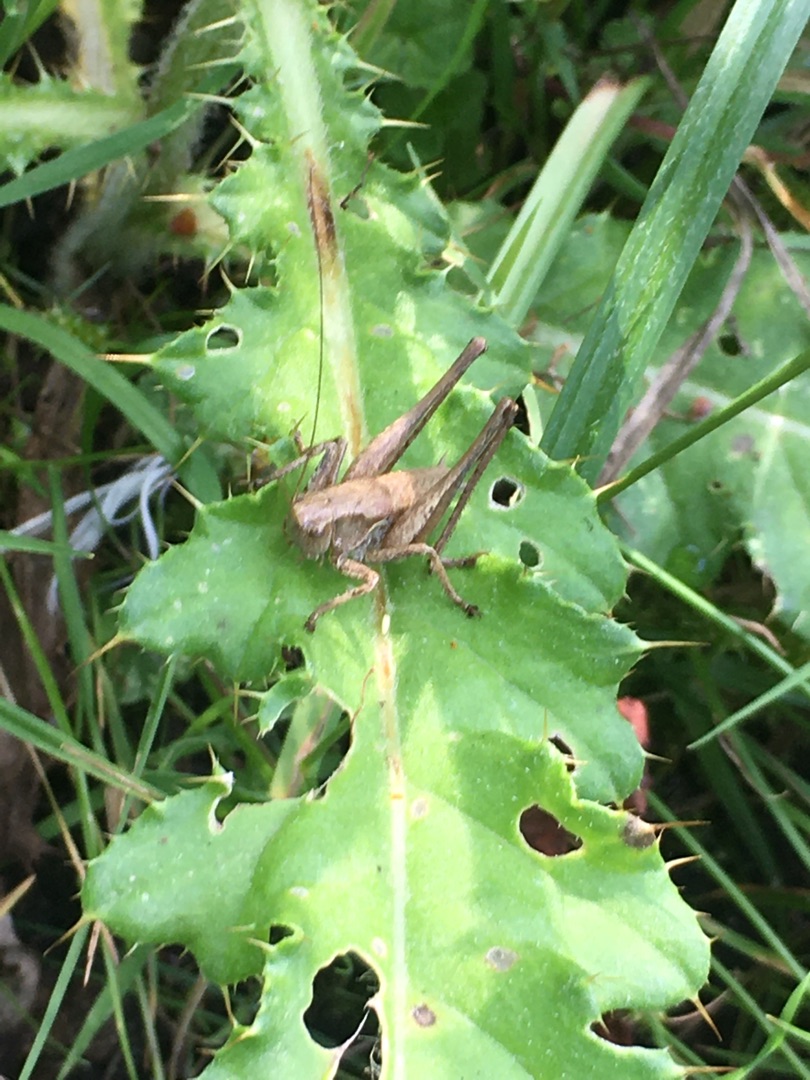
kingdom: Animalia
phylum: Arthropoda
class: Insecta
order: Orthoptera
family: Tettigoniidae
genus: Pholidoptera
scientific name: Pholidoptera griseoaptera
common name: Buskgræshoppe
